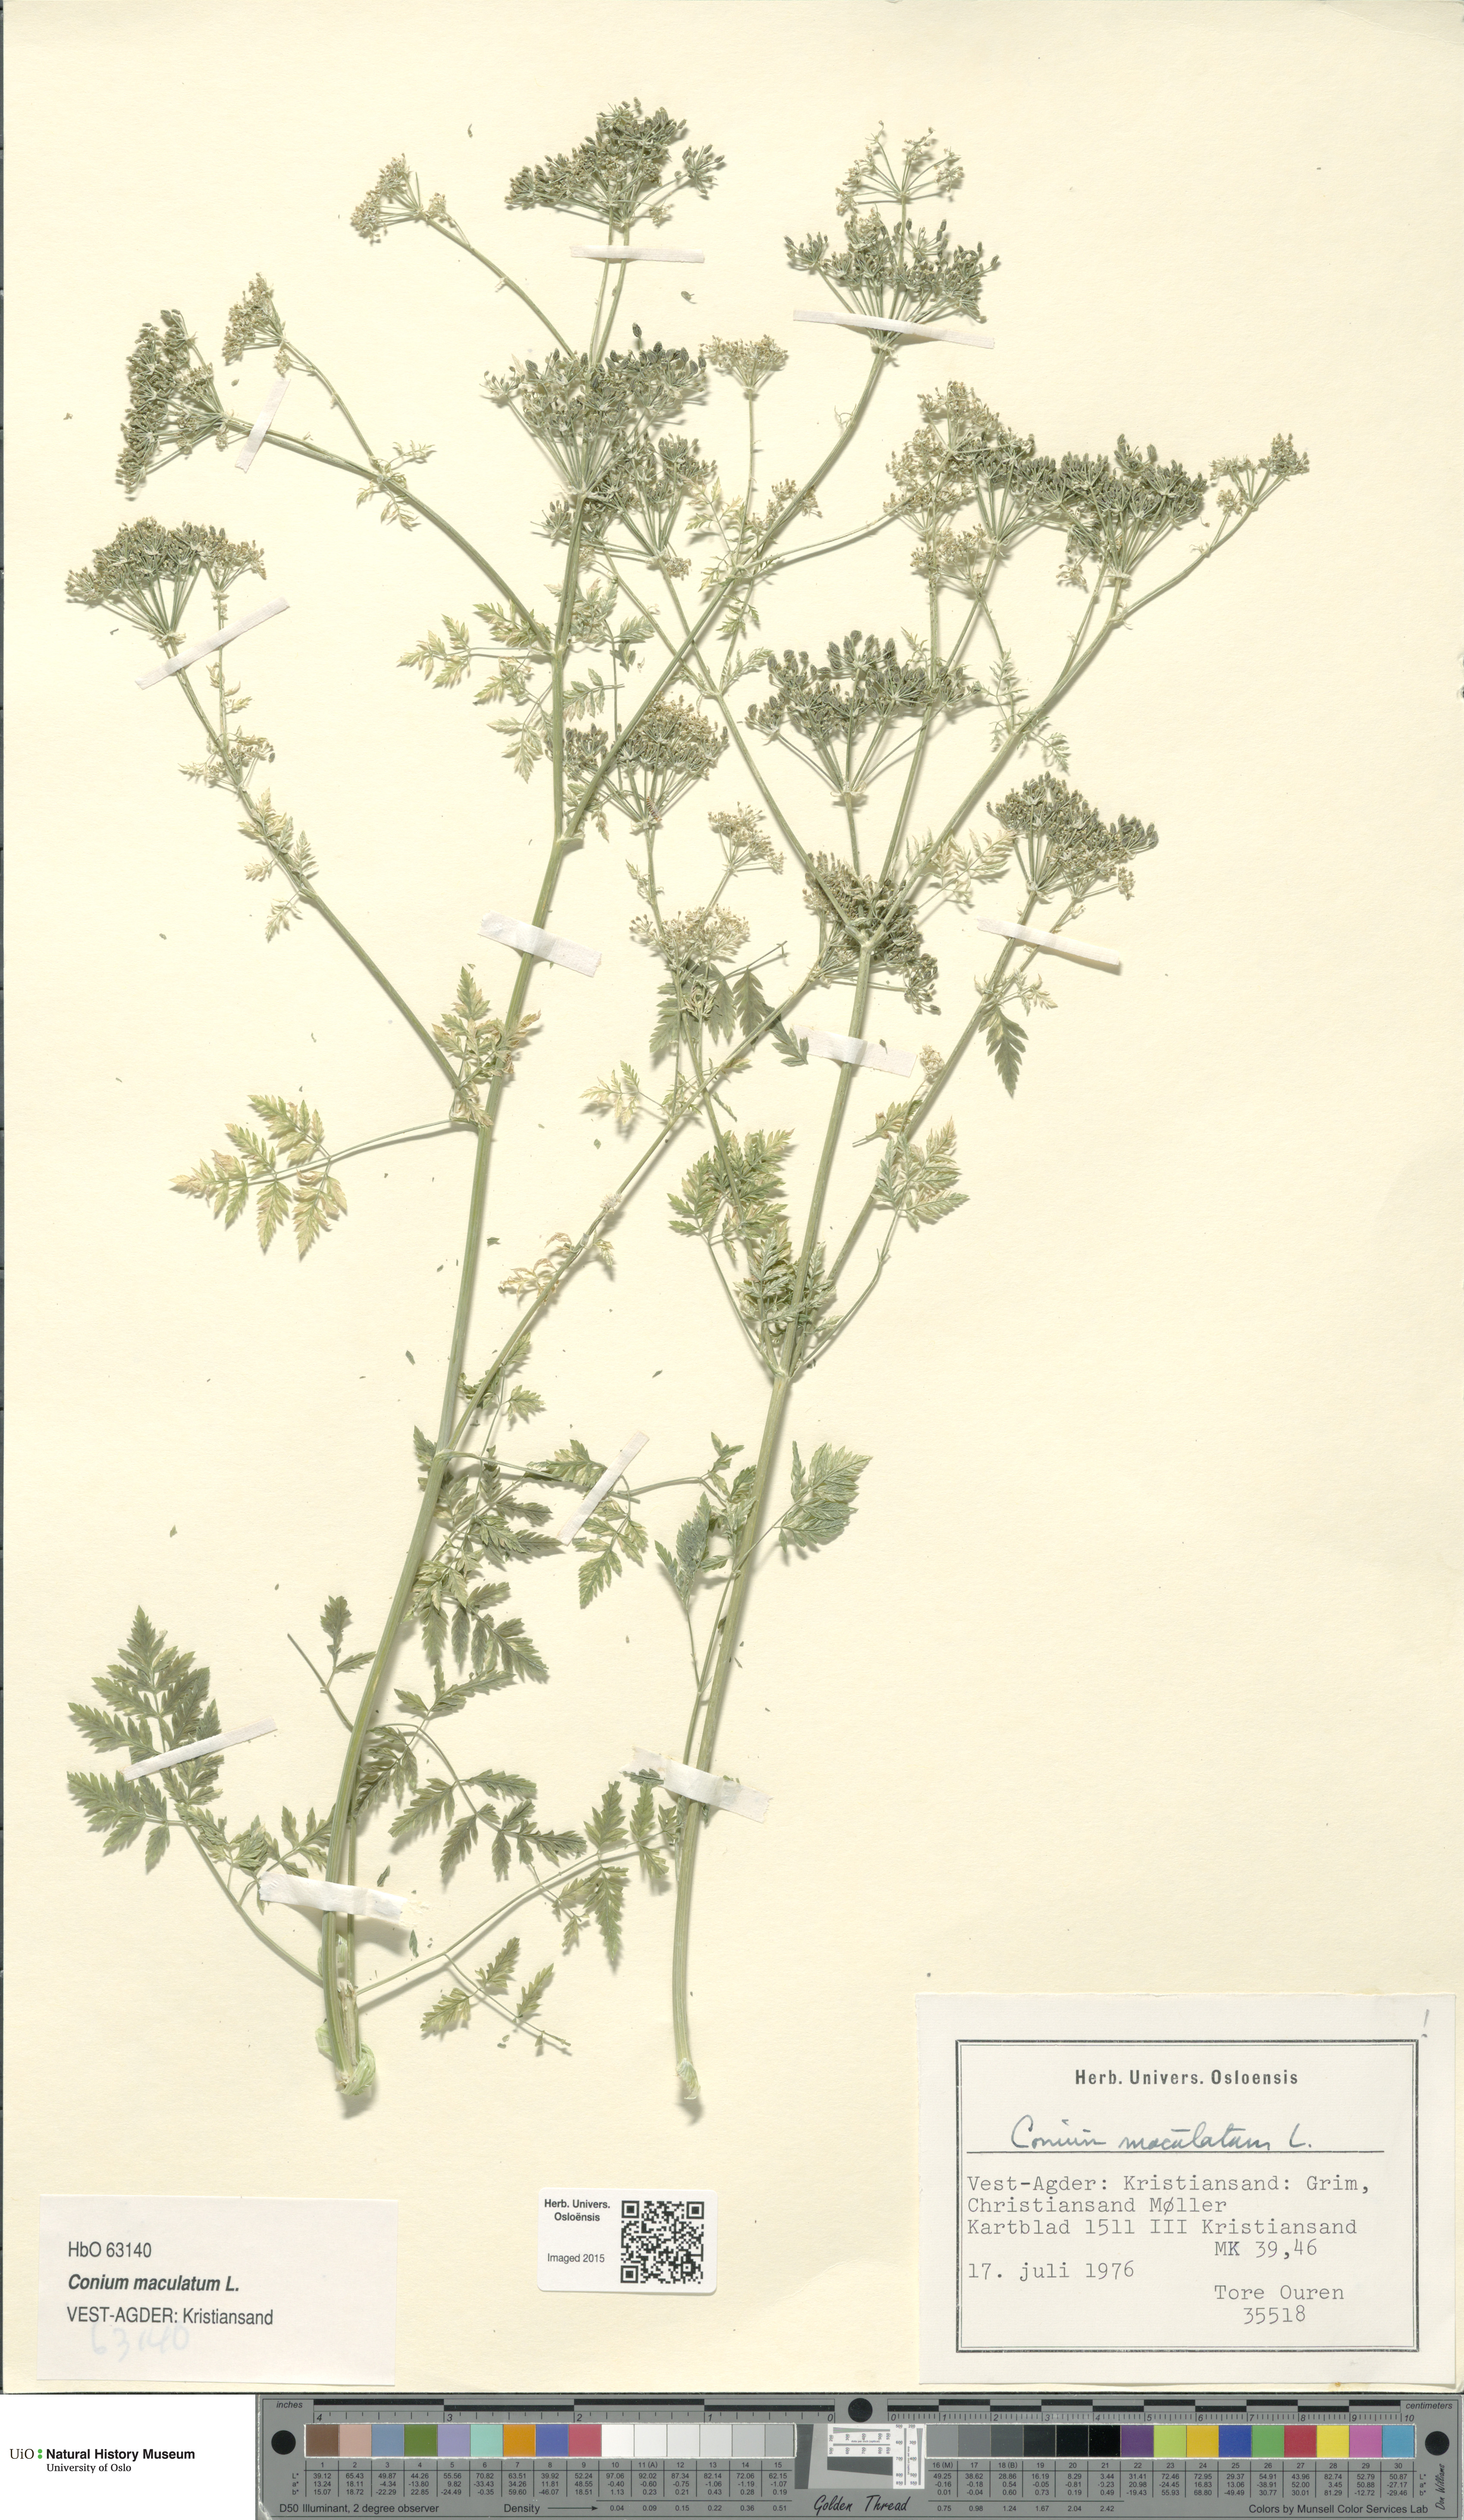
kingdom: Plantae
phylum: Tracheophyta
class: Magnoliopsida
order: Apiales
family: Apiaceae
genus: Conium
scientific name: Conium maculatum
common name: Hemlock
